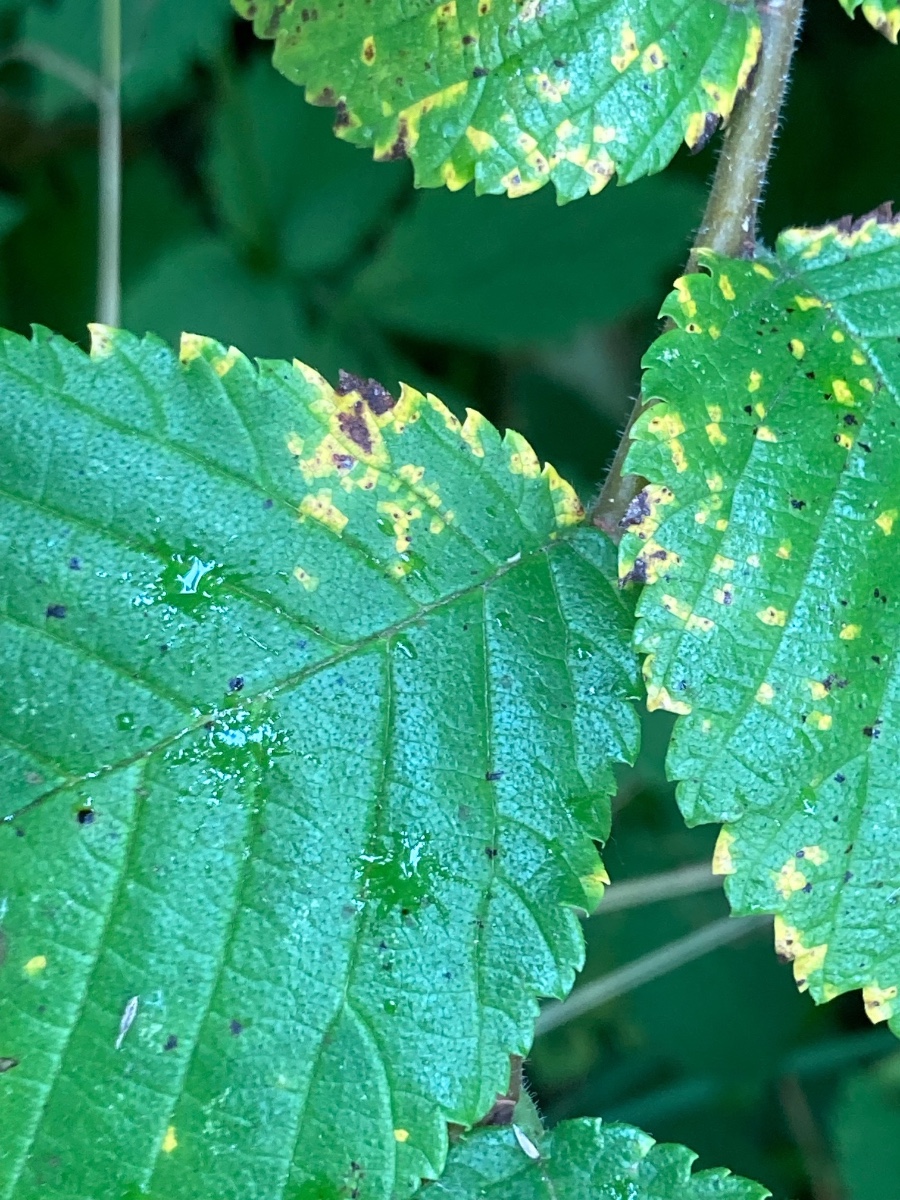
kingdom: Fungi
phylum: Ascomycota
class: Dothideomycetes
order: Mycosphaerellales
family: Mycosphaerellaceae
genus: Mycosphaerella
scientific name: Mycosphaerella ulmi
